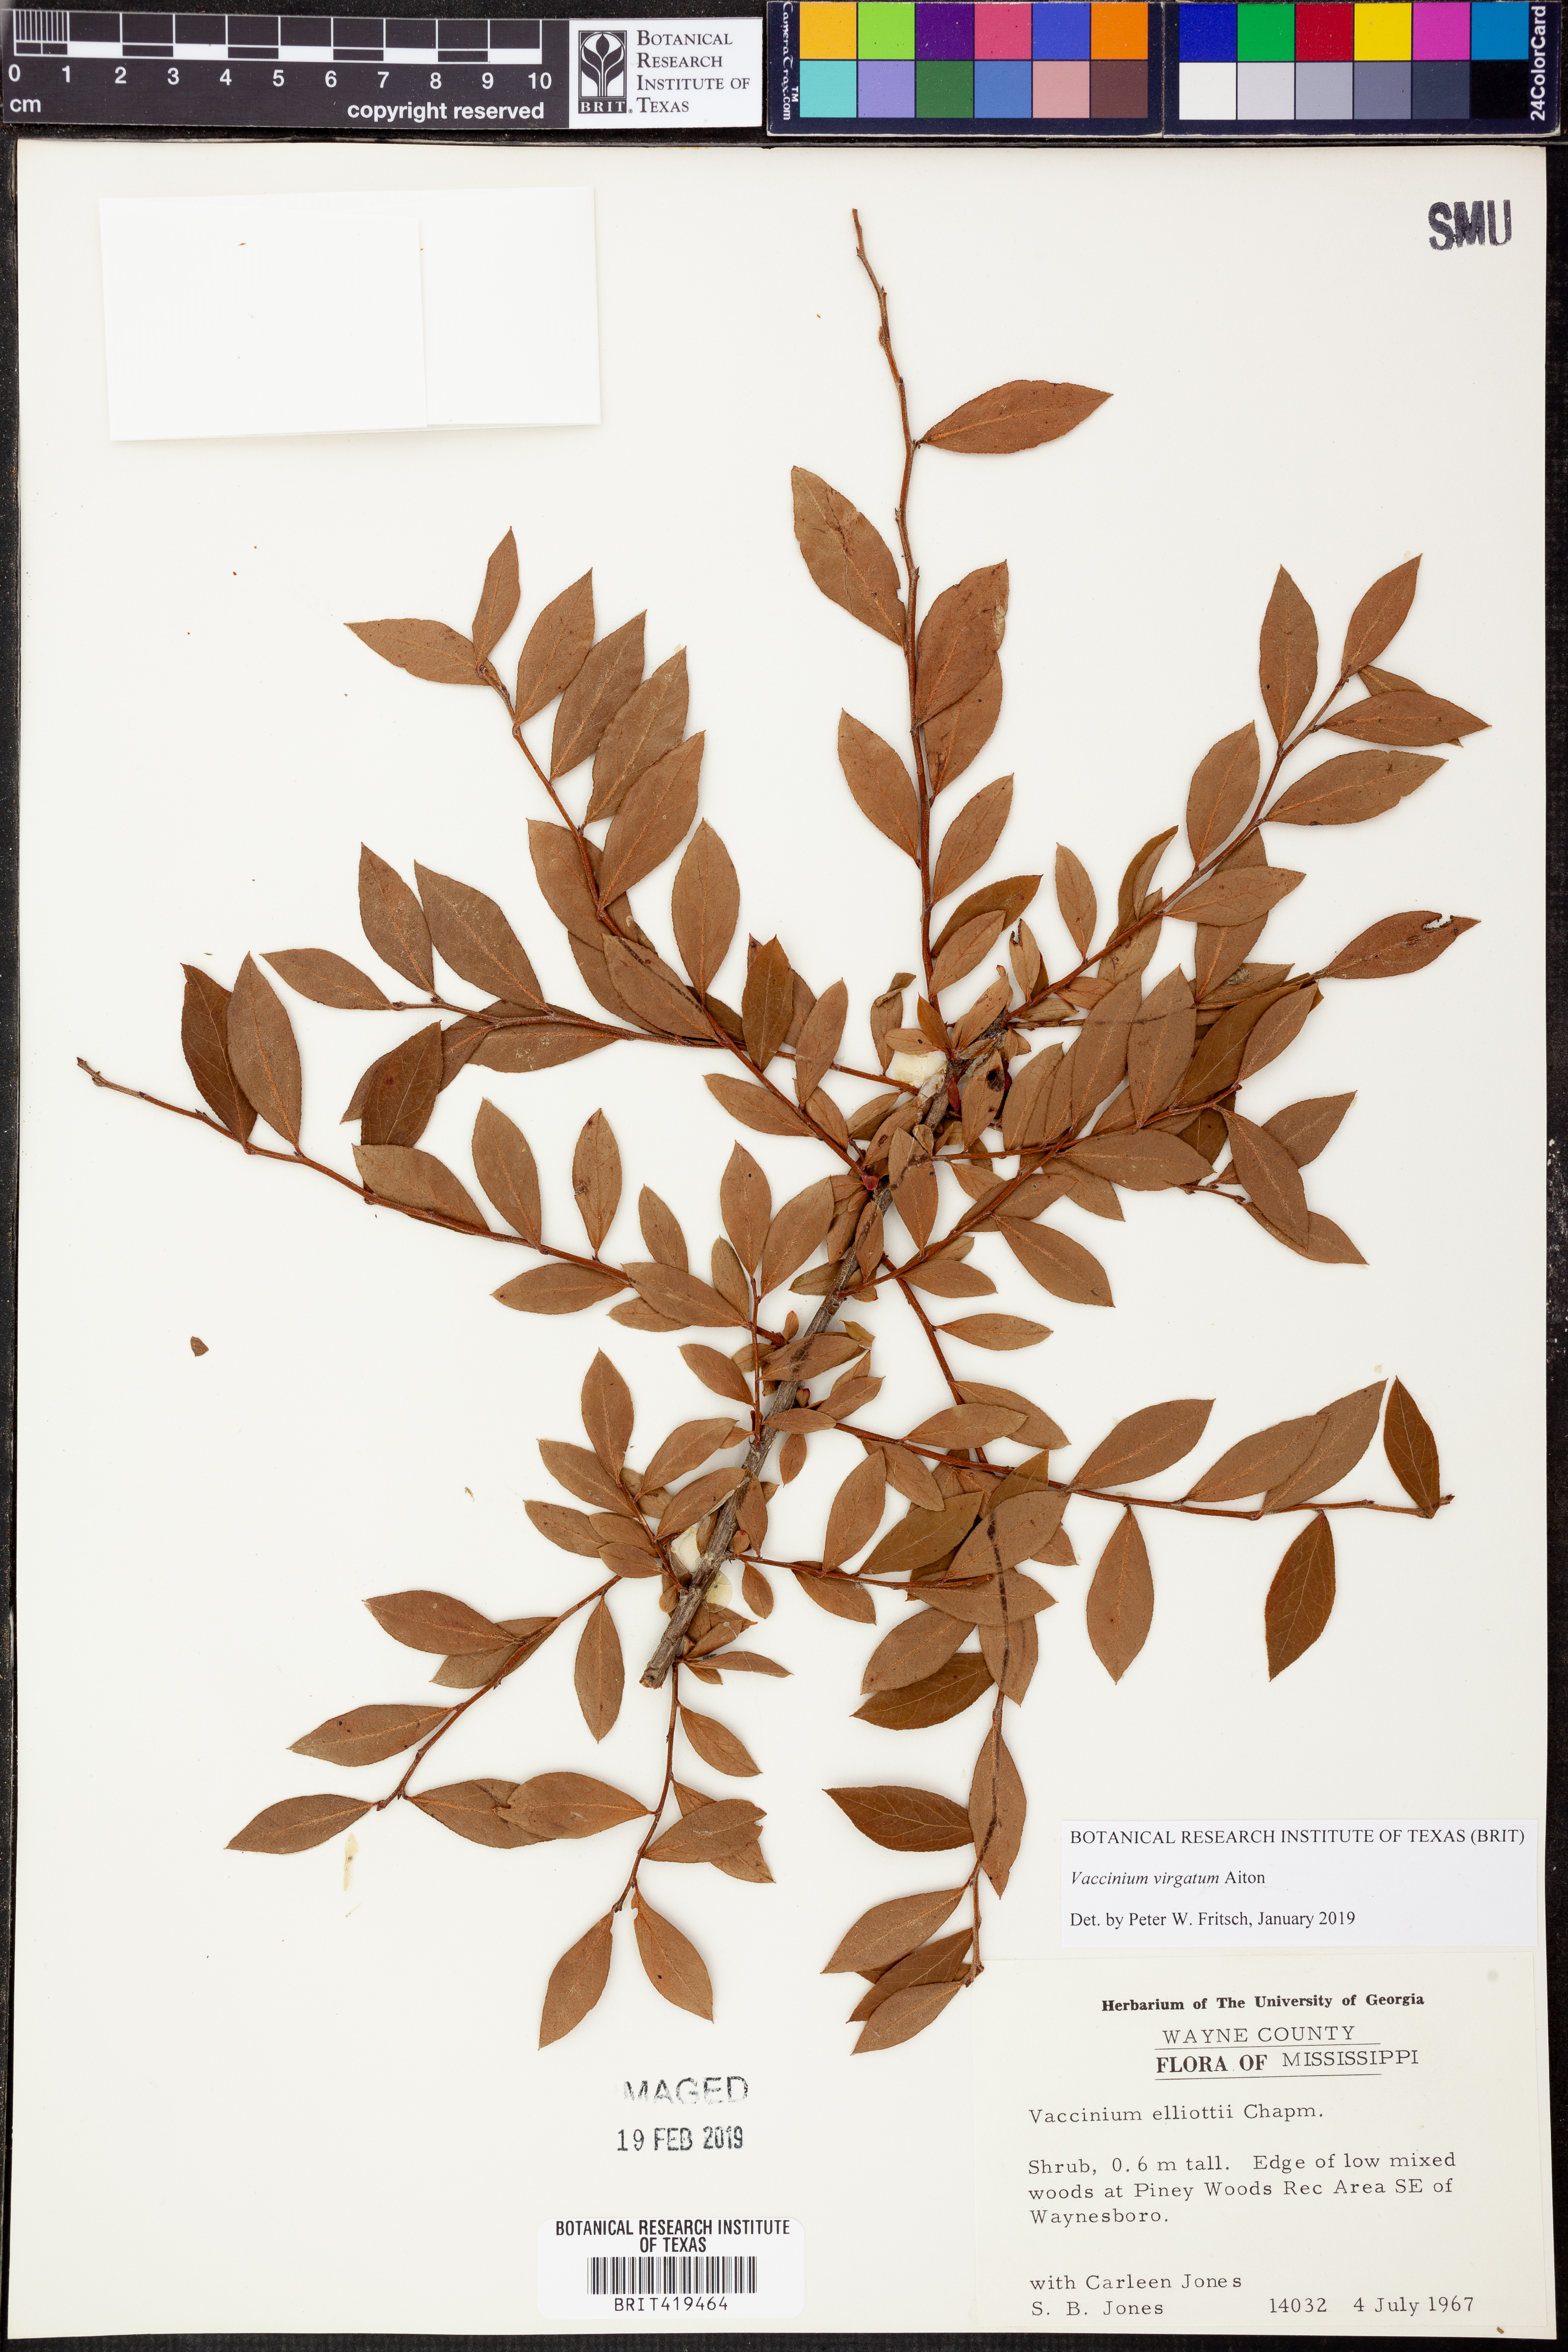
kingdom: Plantae
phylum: Tracheophyta
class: Magnoliopsida
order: Ericales
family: Ericaceae
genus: Vaccinium
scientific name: Vaccinium corymbosum
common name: Blueberry
